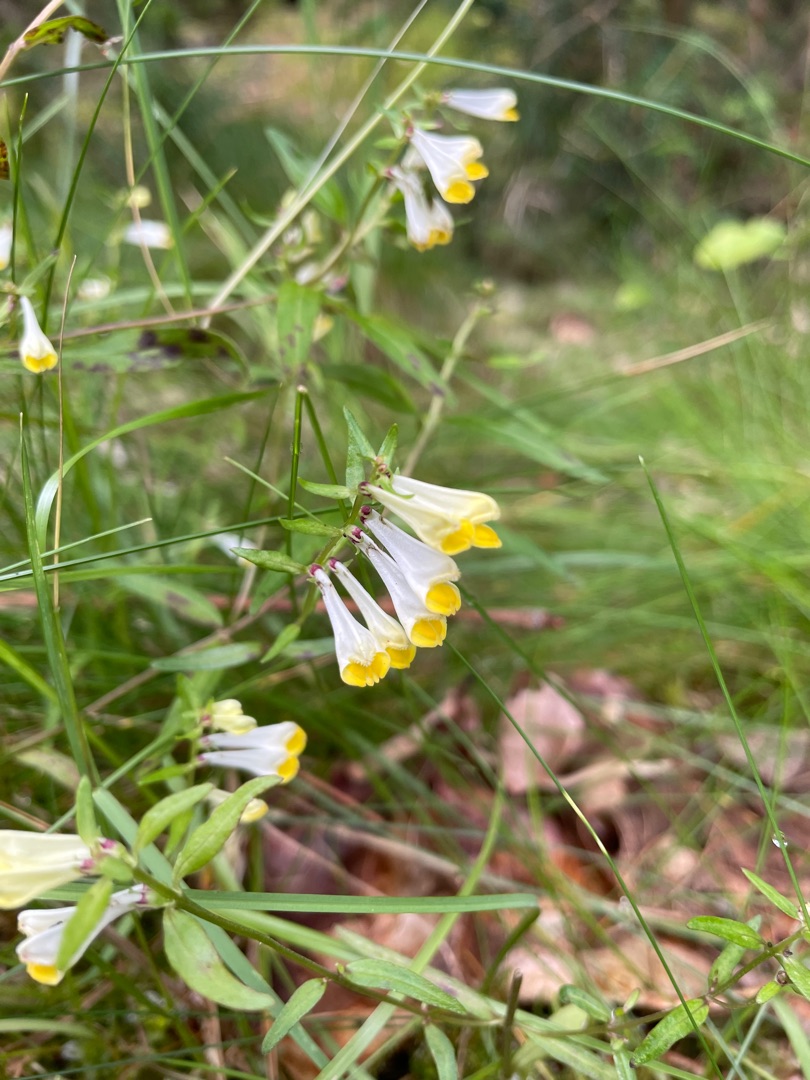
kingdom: Plantae
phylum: Tracheophyta
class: Magnoliopsida
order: Lamiales
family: Orobanchaceae
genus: Melampyrum
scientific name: Melampyrum pratense
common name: Almindelig kohvede
